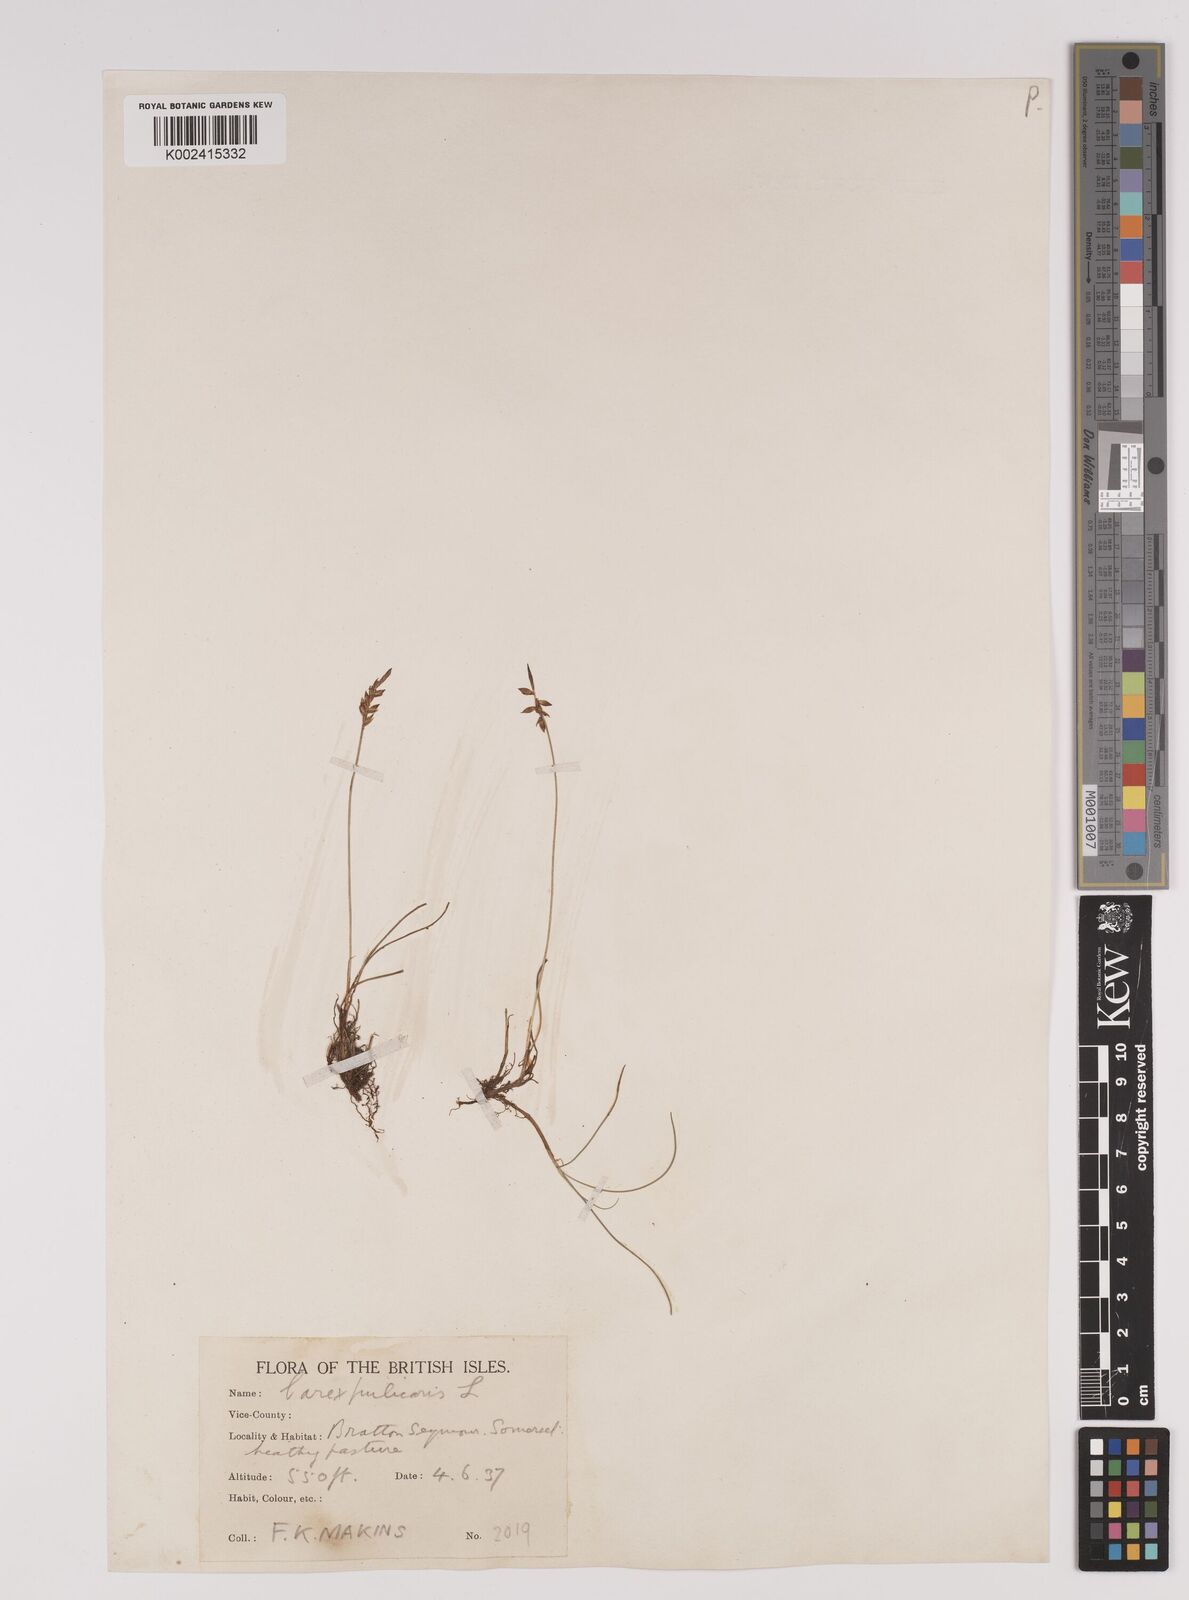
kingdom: Plantae
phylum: Tracheophyta
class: Liliopsida
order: Poales
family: Cyperaceae
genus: Carex
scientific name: Carex pulicaris
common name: Flea sedge
